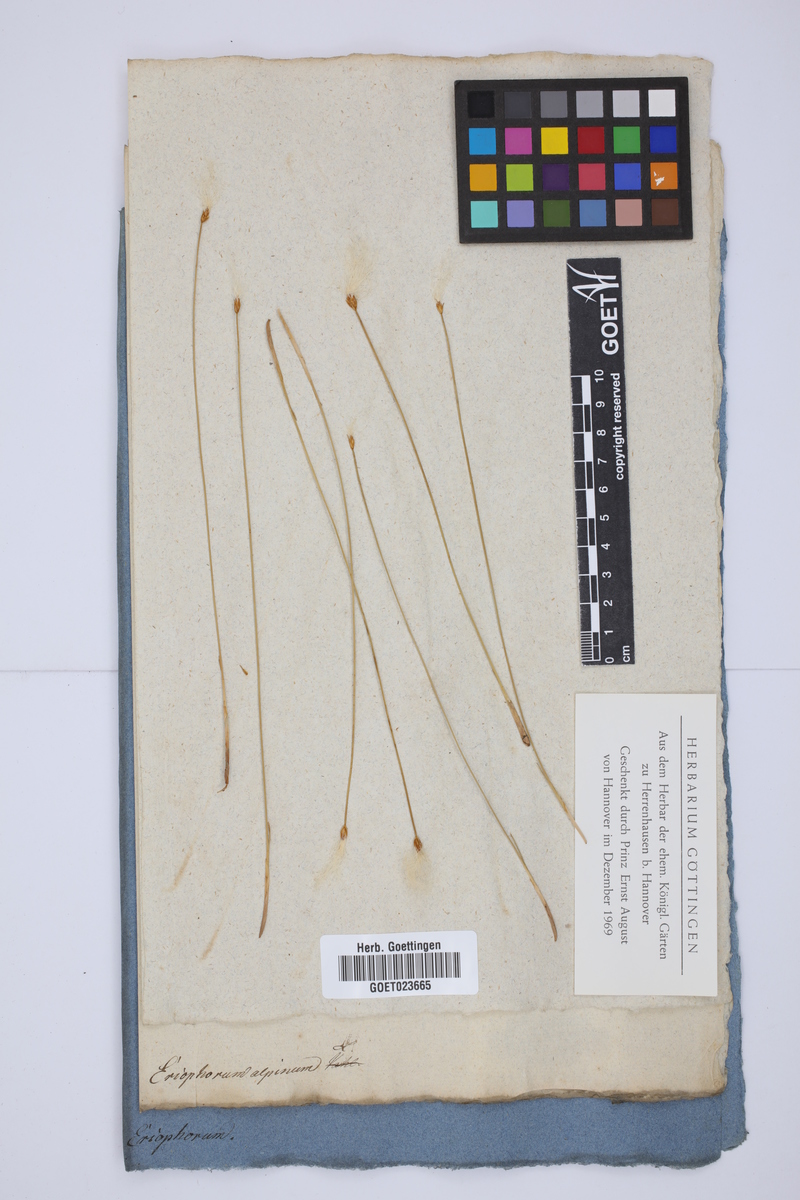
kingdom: Plantae
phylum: Tracheophyta
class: Liliopsida
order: Poales
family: Cyperaceae
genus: Trichophorum
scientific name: Trichophorum alpinum
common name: Alpine bulrush
